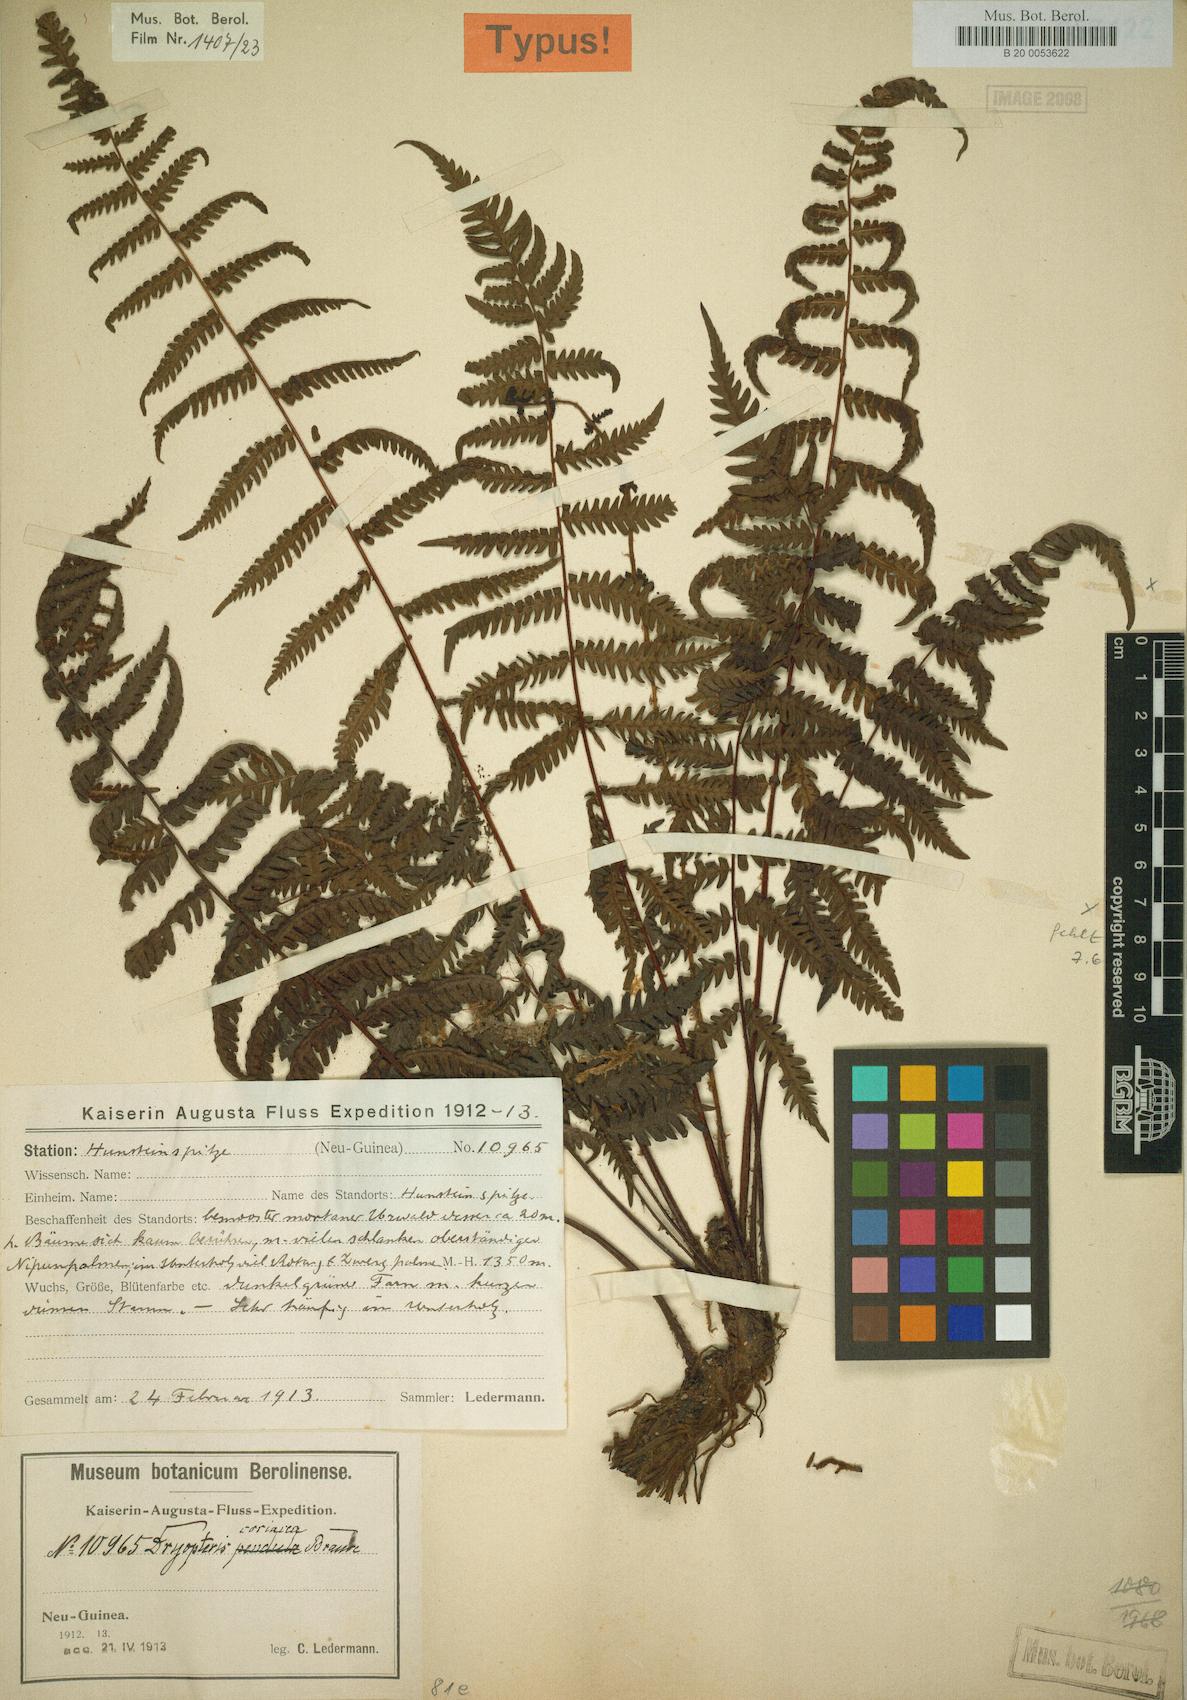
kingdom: Plantae
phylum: Tracheophyta
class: Polypodiopsida
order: Polypodiales
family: Thelypteridaceae
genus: Coryphopteris
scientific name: Coryphopteris coriacea
